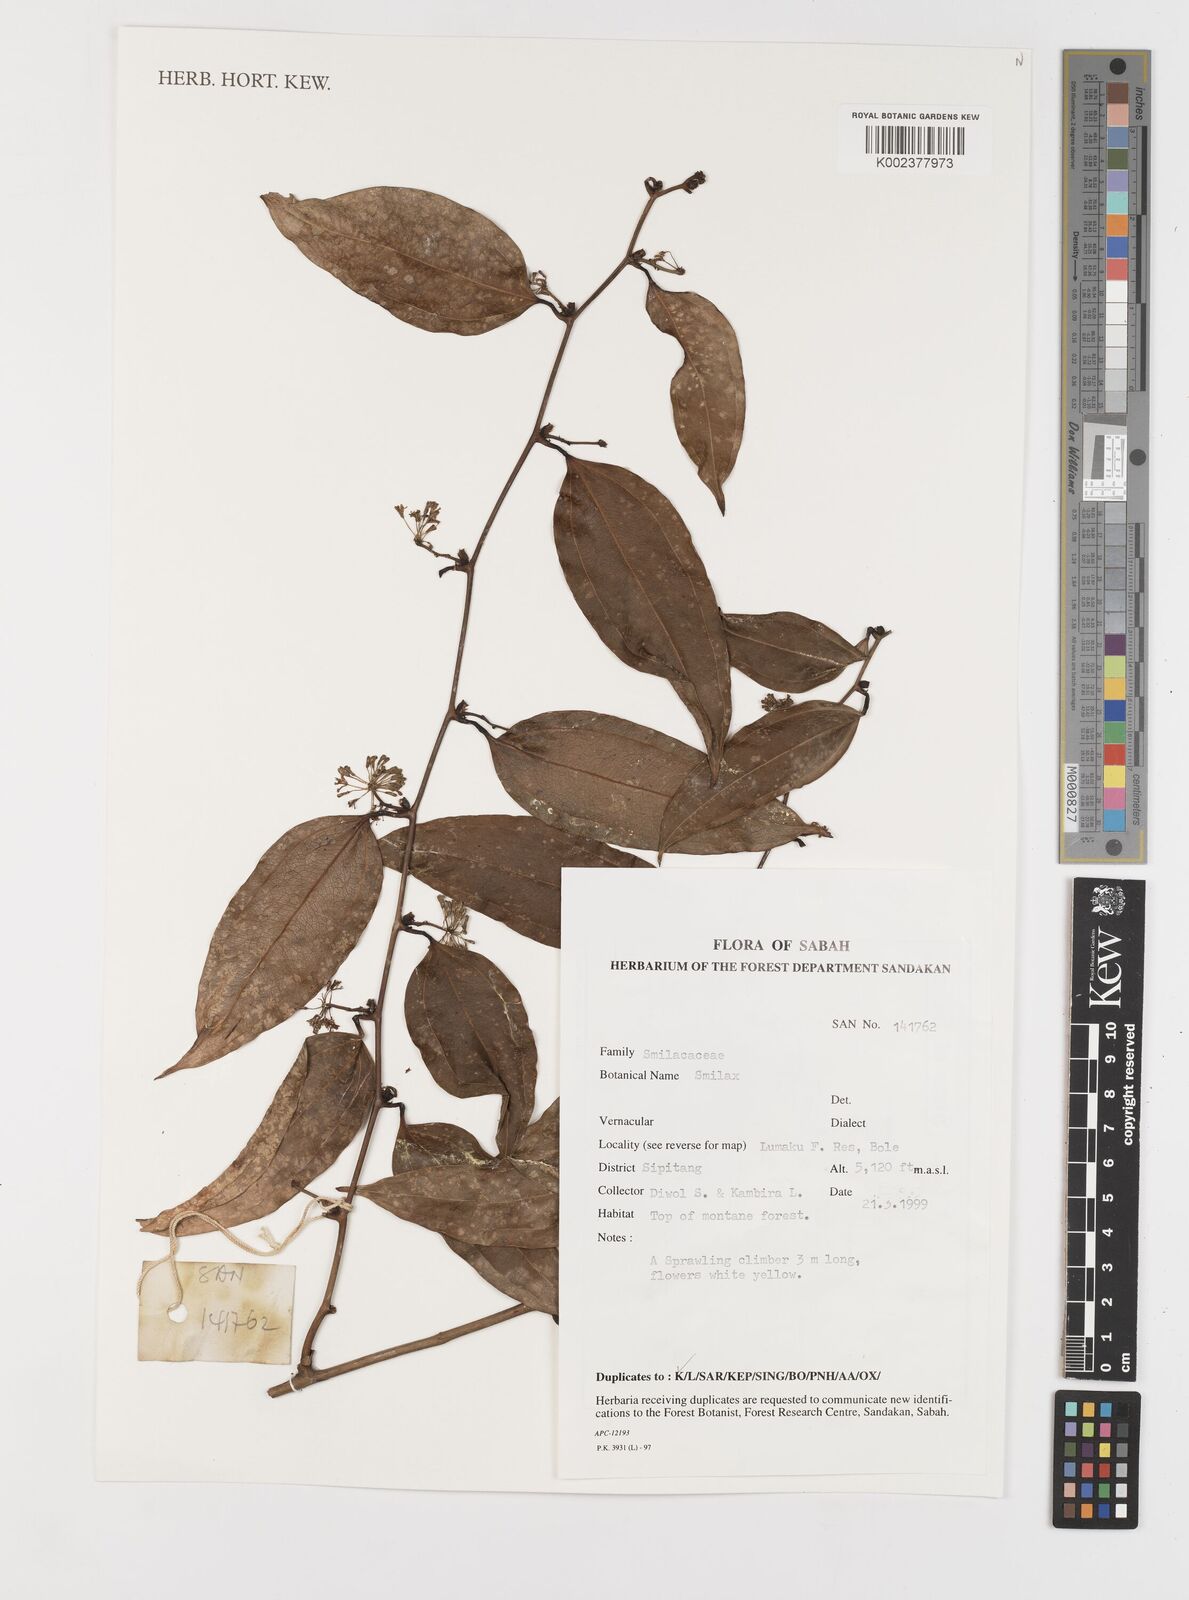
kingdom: Plantae
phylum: Tracheophyta
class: Liliopsida
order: Liliales
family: Smilacaceae
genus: Smilax
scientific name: Smilax
